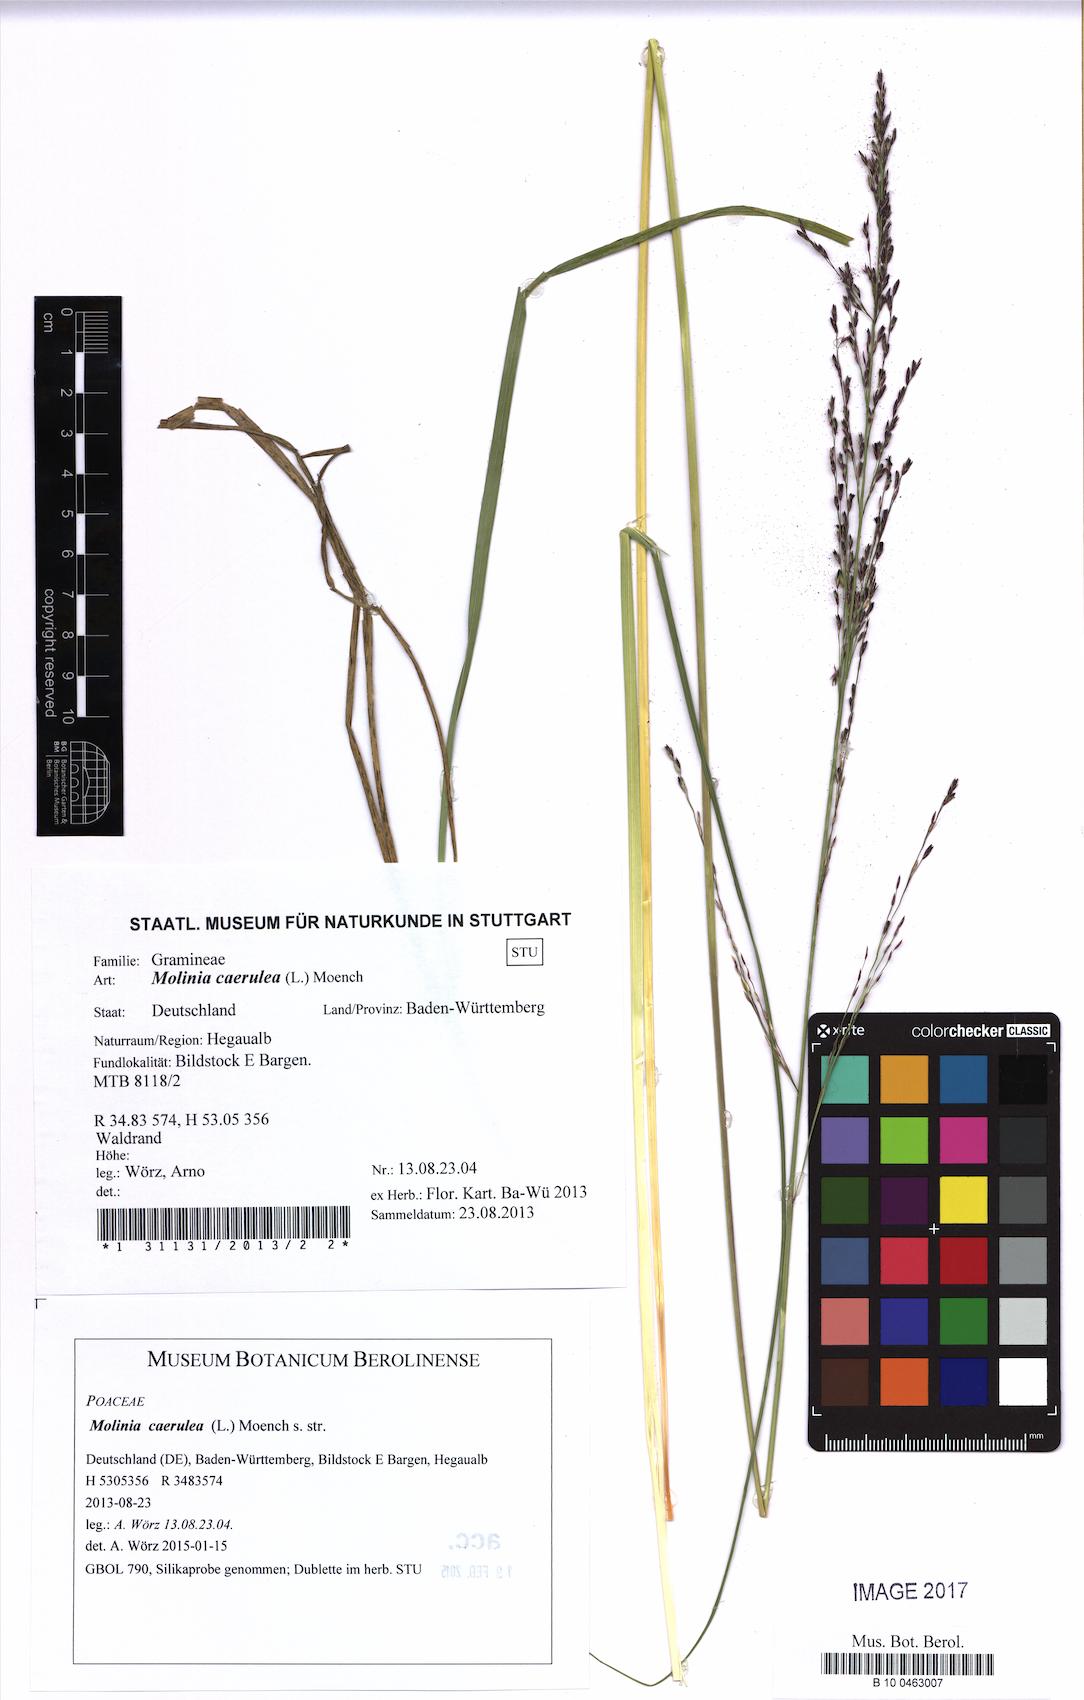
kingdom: Plantae
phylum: Tracheophyta
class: Liliopsida
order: Poales
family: Poaceae
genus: Molinia
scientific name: Molinia caerulea
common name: Purple moor-grass
